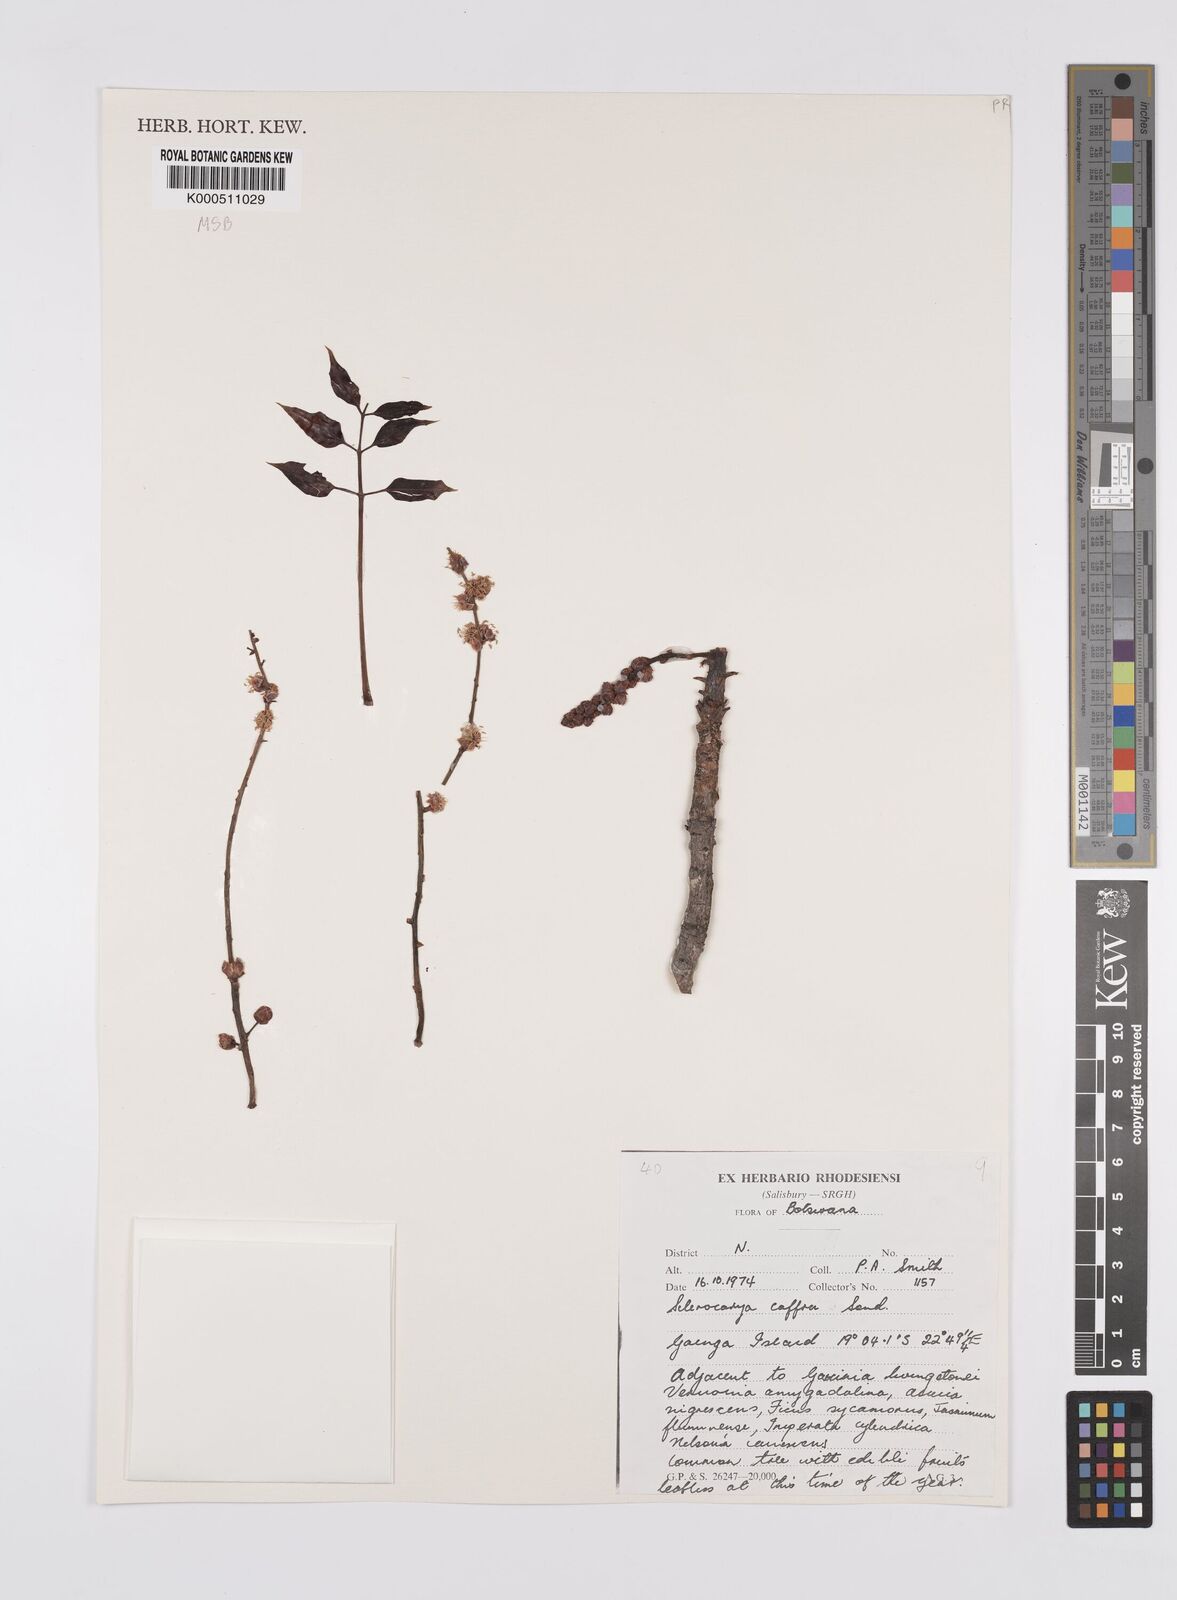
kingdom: Plantae
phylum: Tracheophyta
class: Magnoliopsida
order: Sapindales
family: Anacardiaceae
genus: Sclerocarya
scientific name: Sclerocarya birrea
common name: Marula
